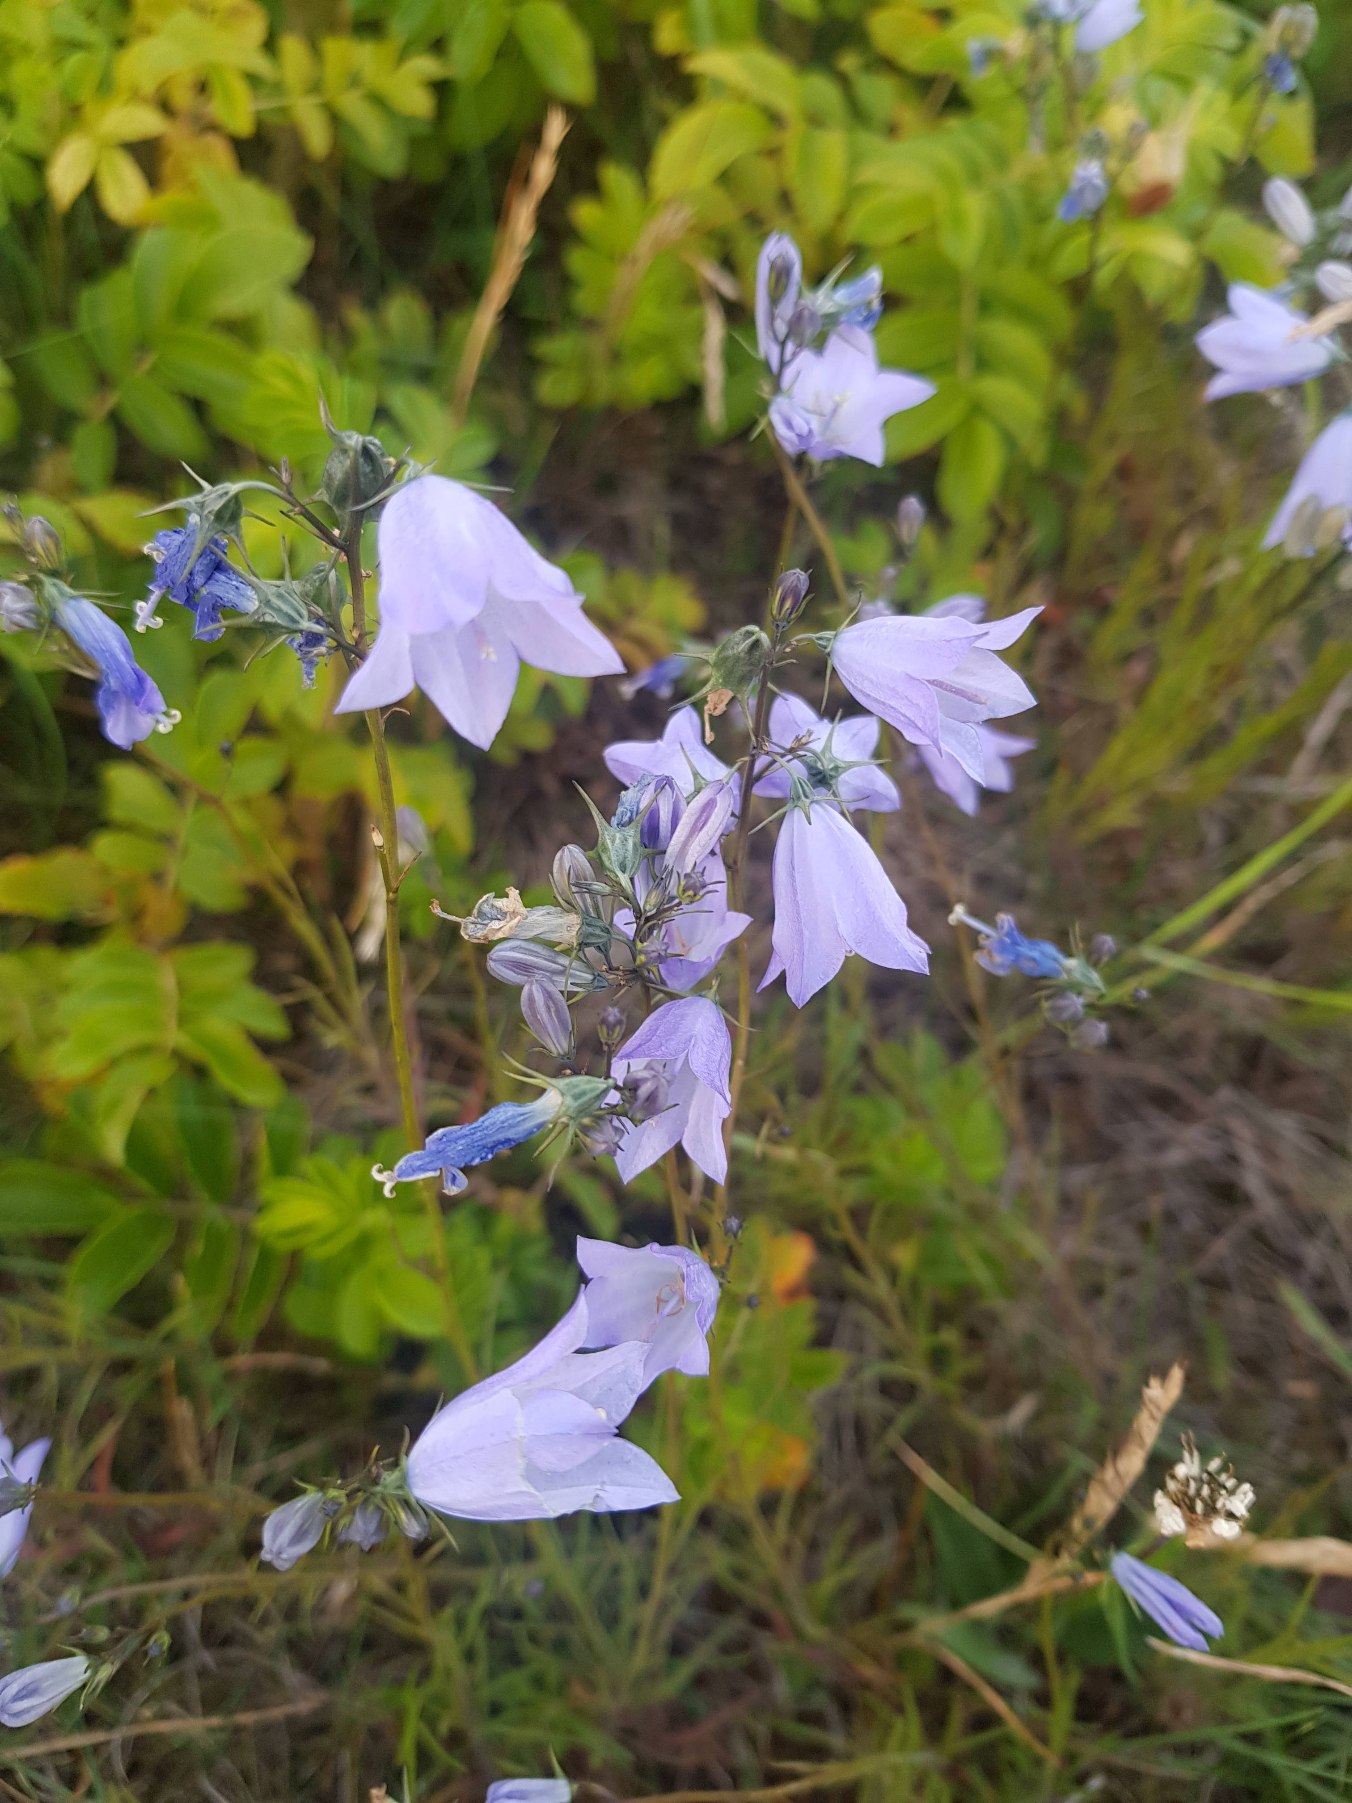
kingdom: Plantae
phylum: Tracheophyta
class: Magnoliopsida
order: Asterales
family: Campanulaceae
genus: Campanula
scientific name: Campanula rotundifolia
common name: Liden klokke
